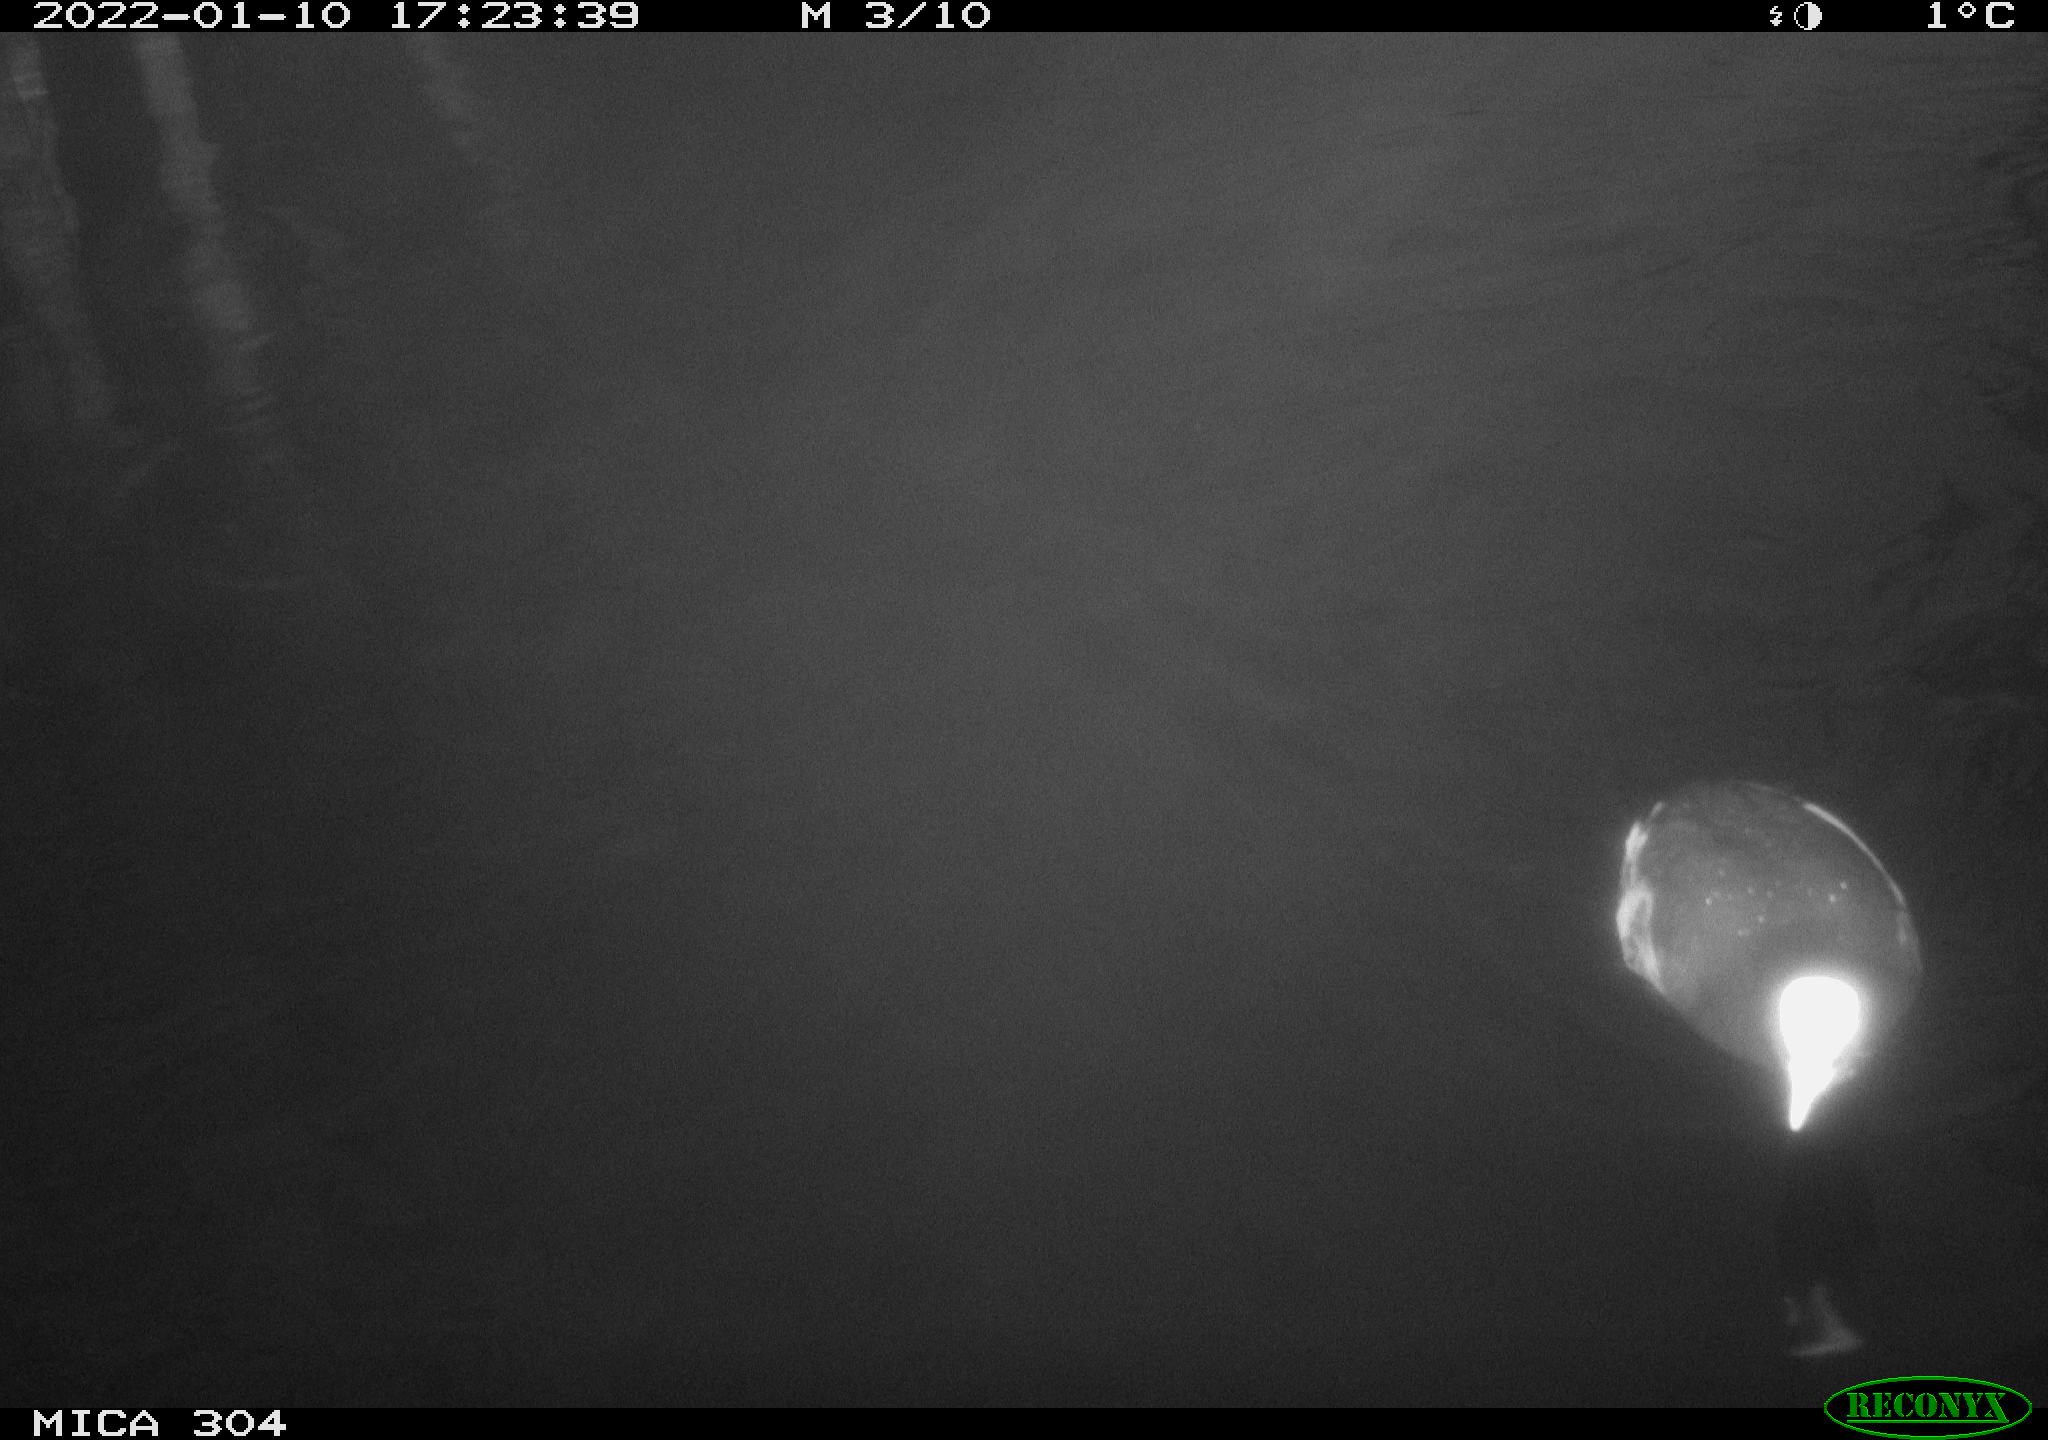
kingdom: Animalia
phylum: Chordata
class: Aves
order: Gruiformes
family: Rallidae
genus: Gallinula
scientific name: Gallinula chloropus
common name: Common moorhen
